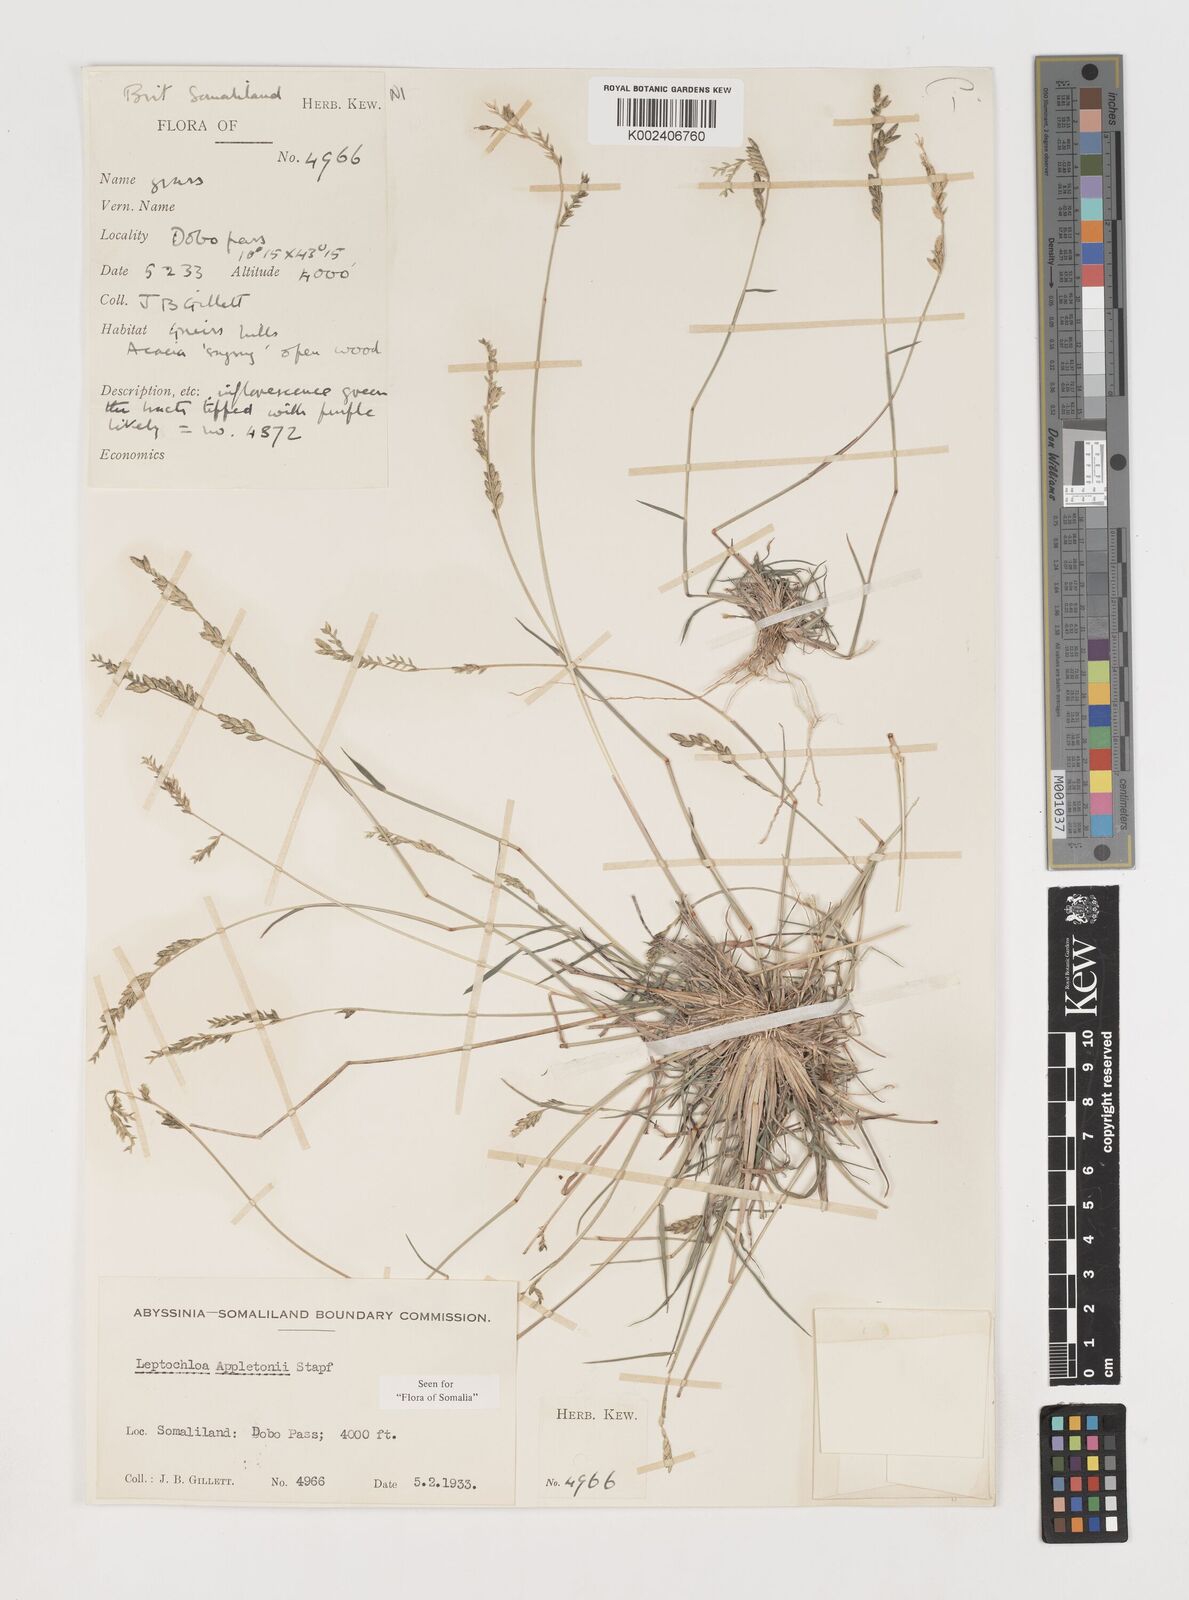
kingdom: Plantae
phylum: Tracheophyta
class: Liliopsida
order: Poales
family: Poaceae
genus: Disakisperma
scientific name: Disakisperma yemenicum
